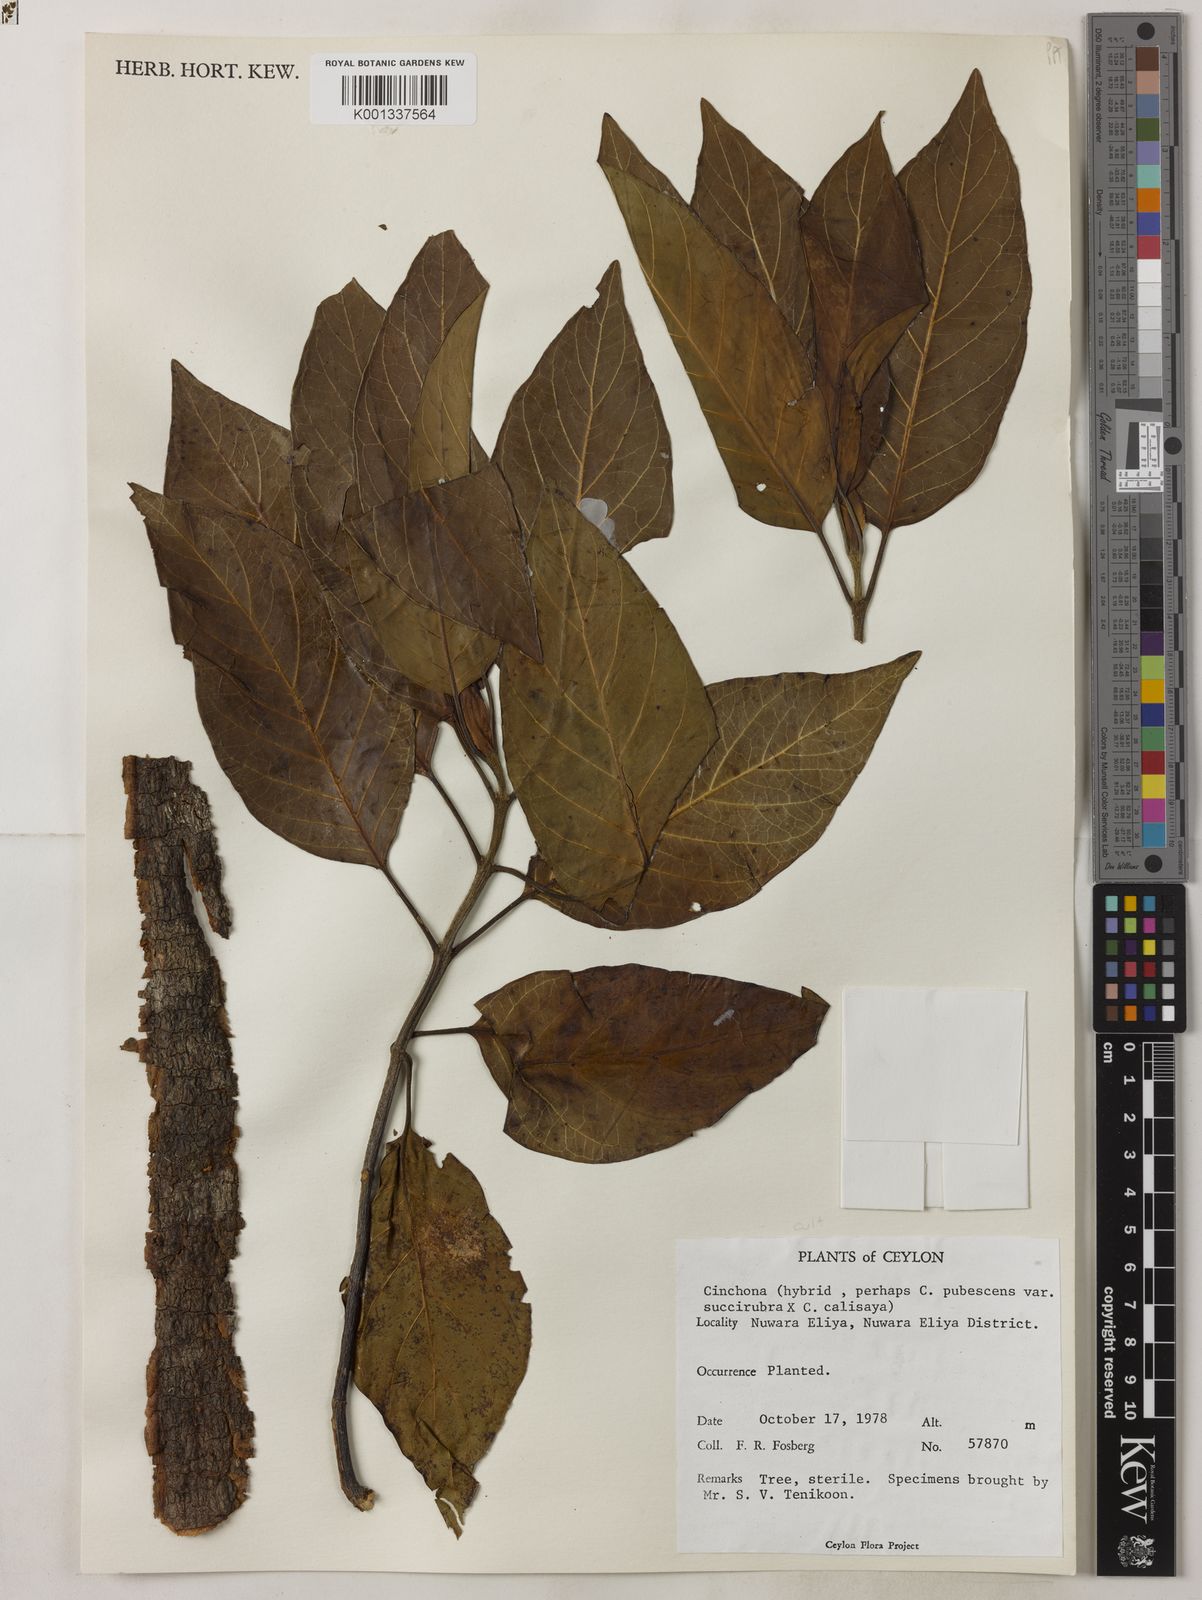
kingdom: Plantae
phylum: Tracheophyta
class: Magnoliopsida
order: Gentianales
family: Rubiaceae
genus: Cinchona
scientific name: Cinchona pubescens
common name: Quinine
